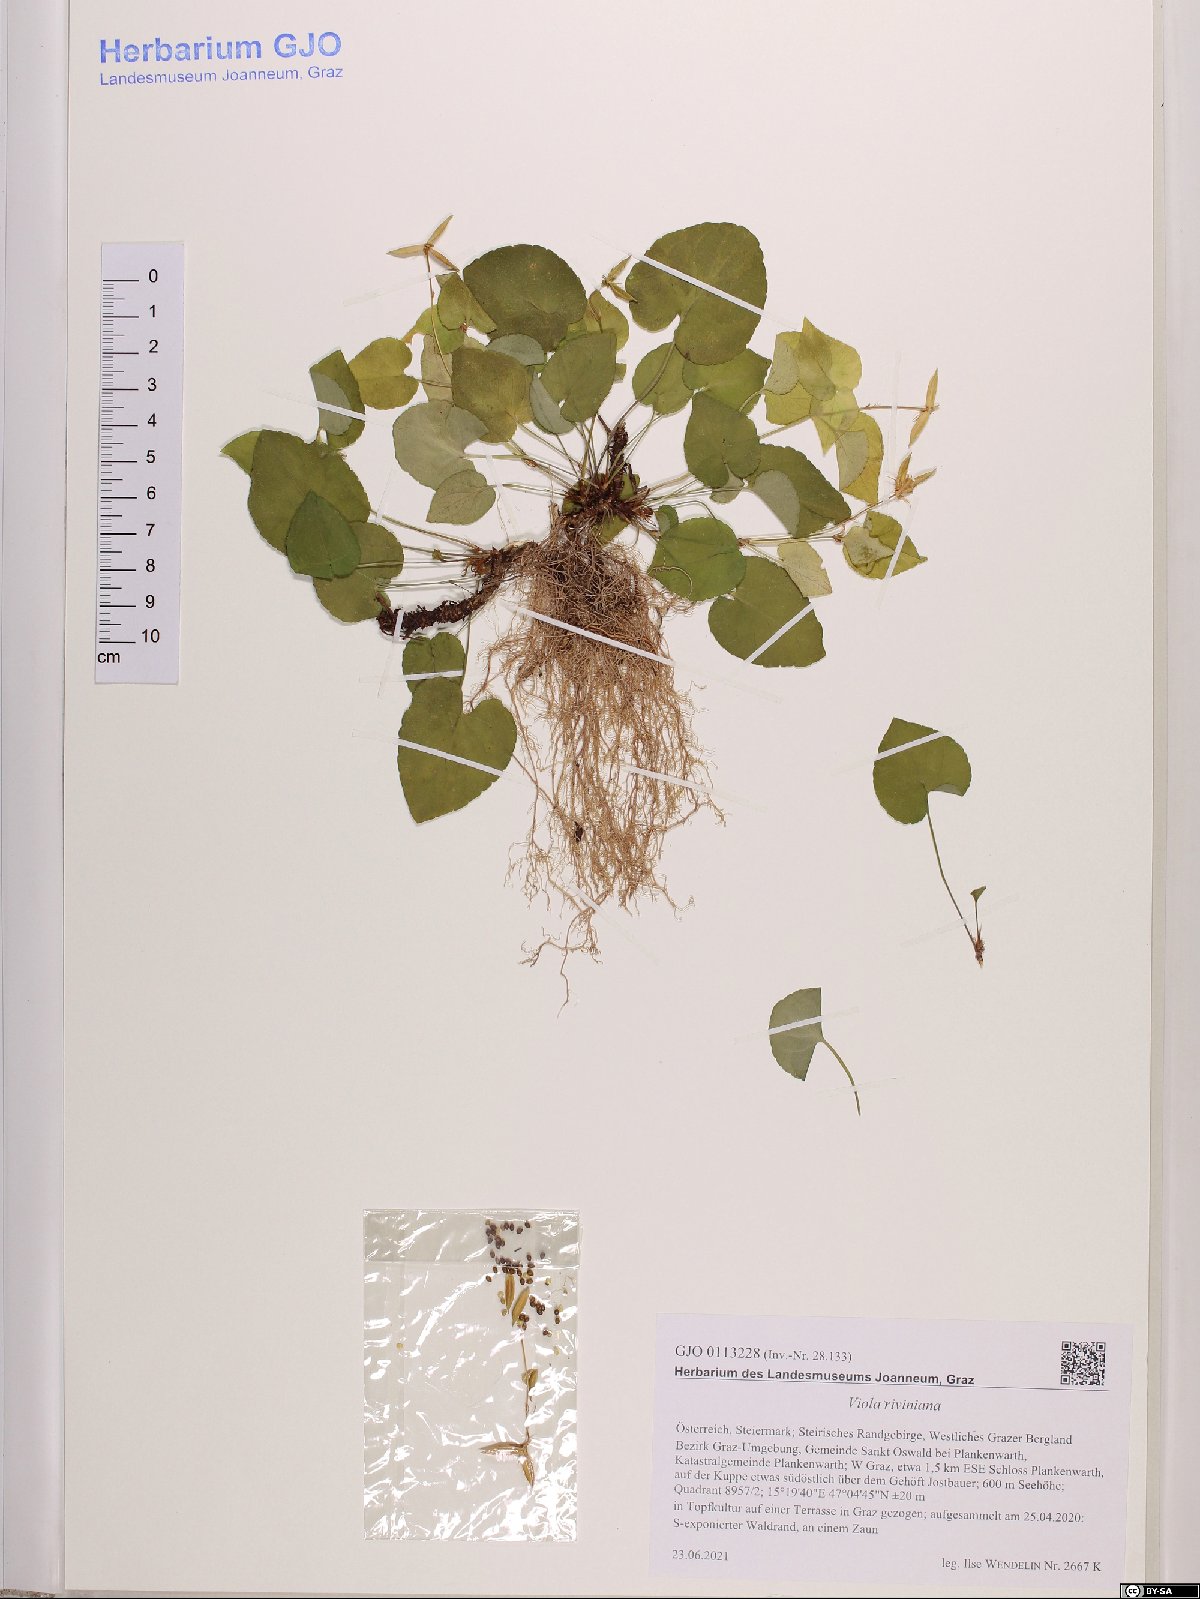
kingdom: Plantae
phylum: Tracheophyta
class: Magnoliopsida
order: Malpighiales
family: Violaceae
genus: Viola
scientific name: Viola riviniana
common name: Common dog-violet
